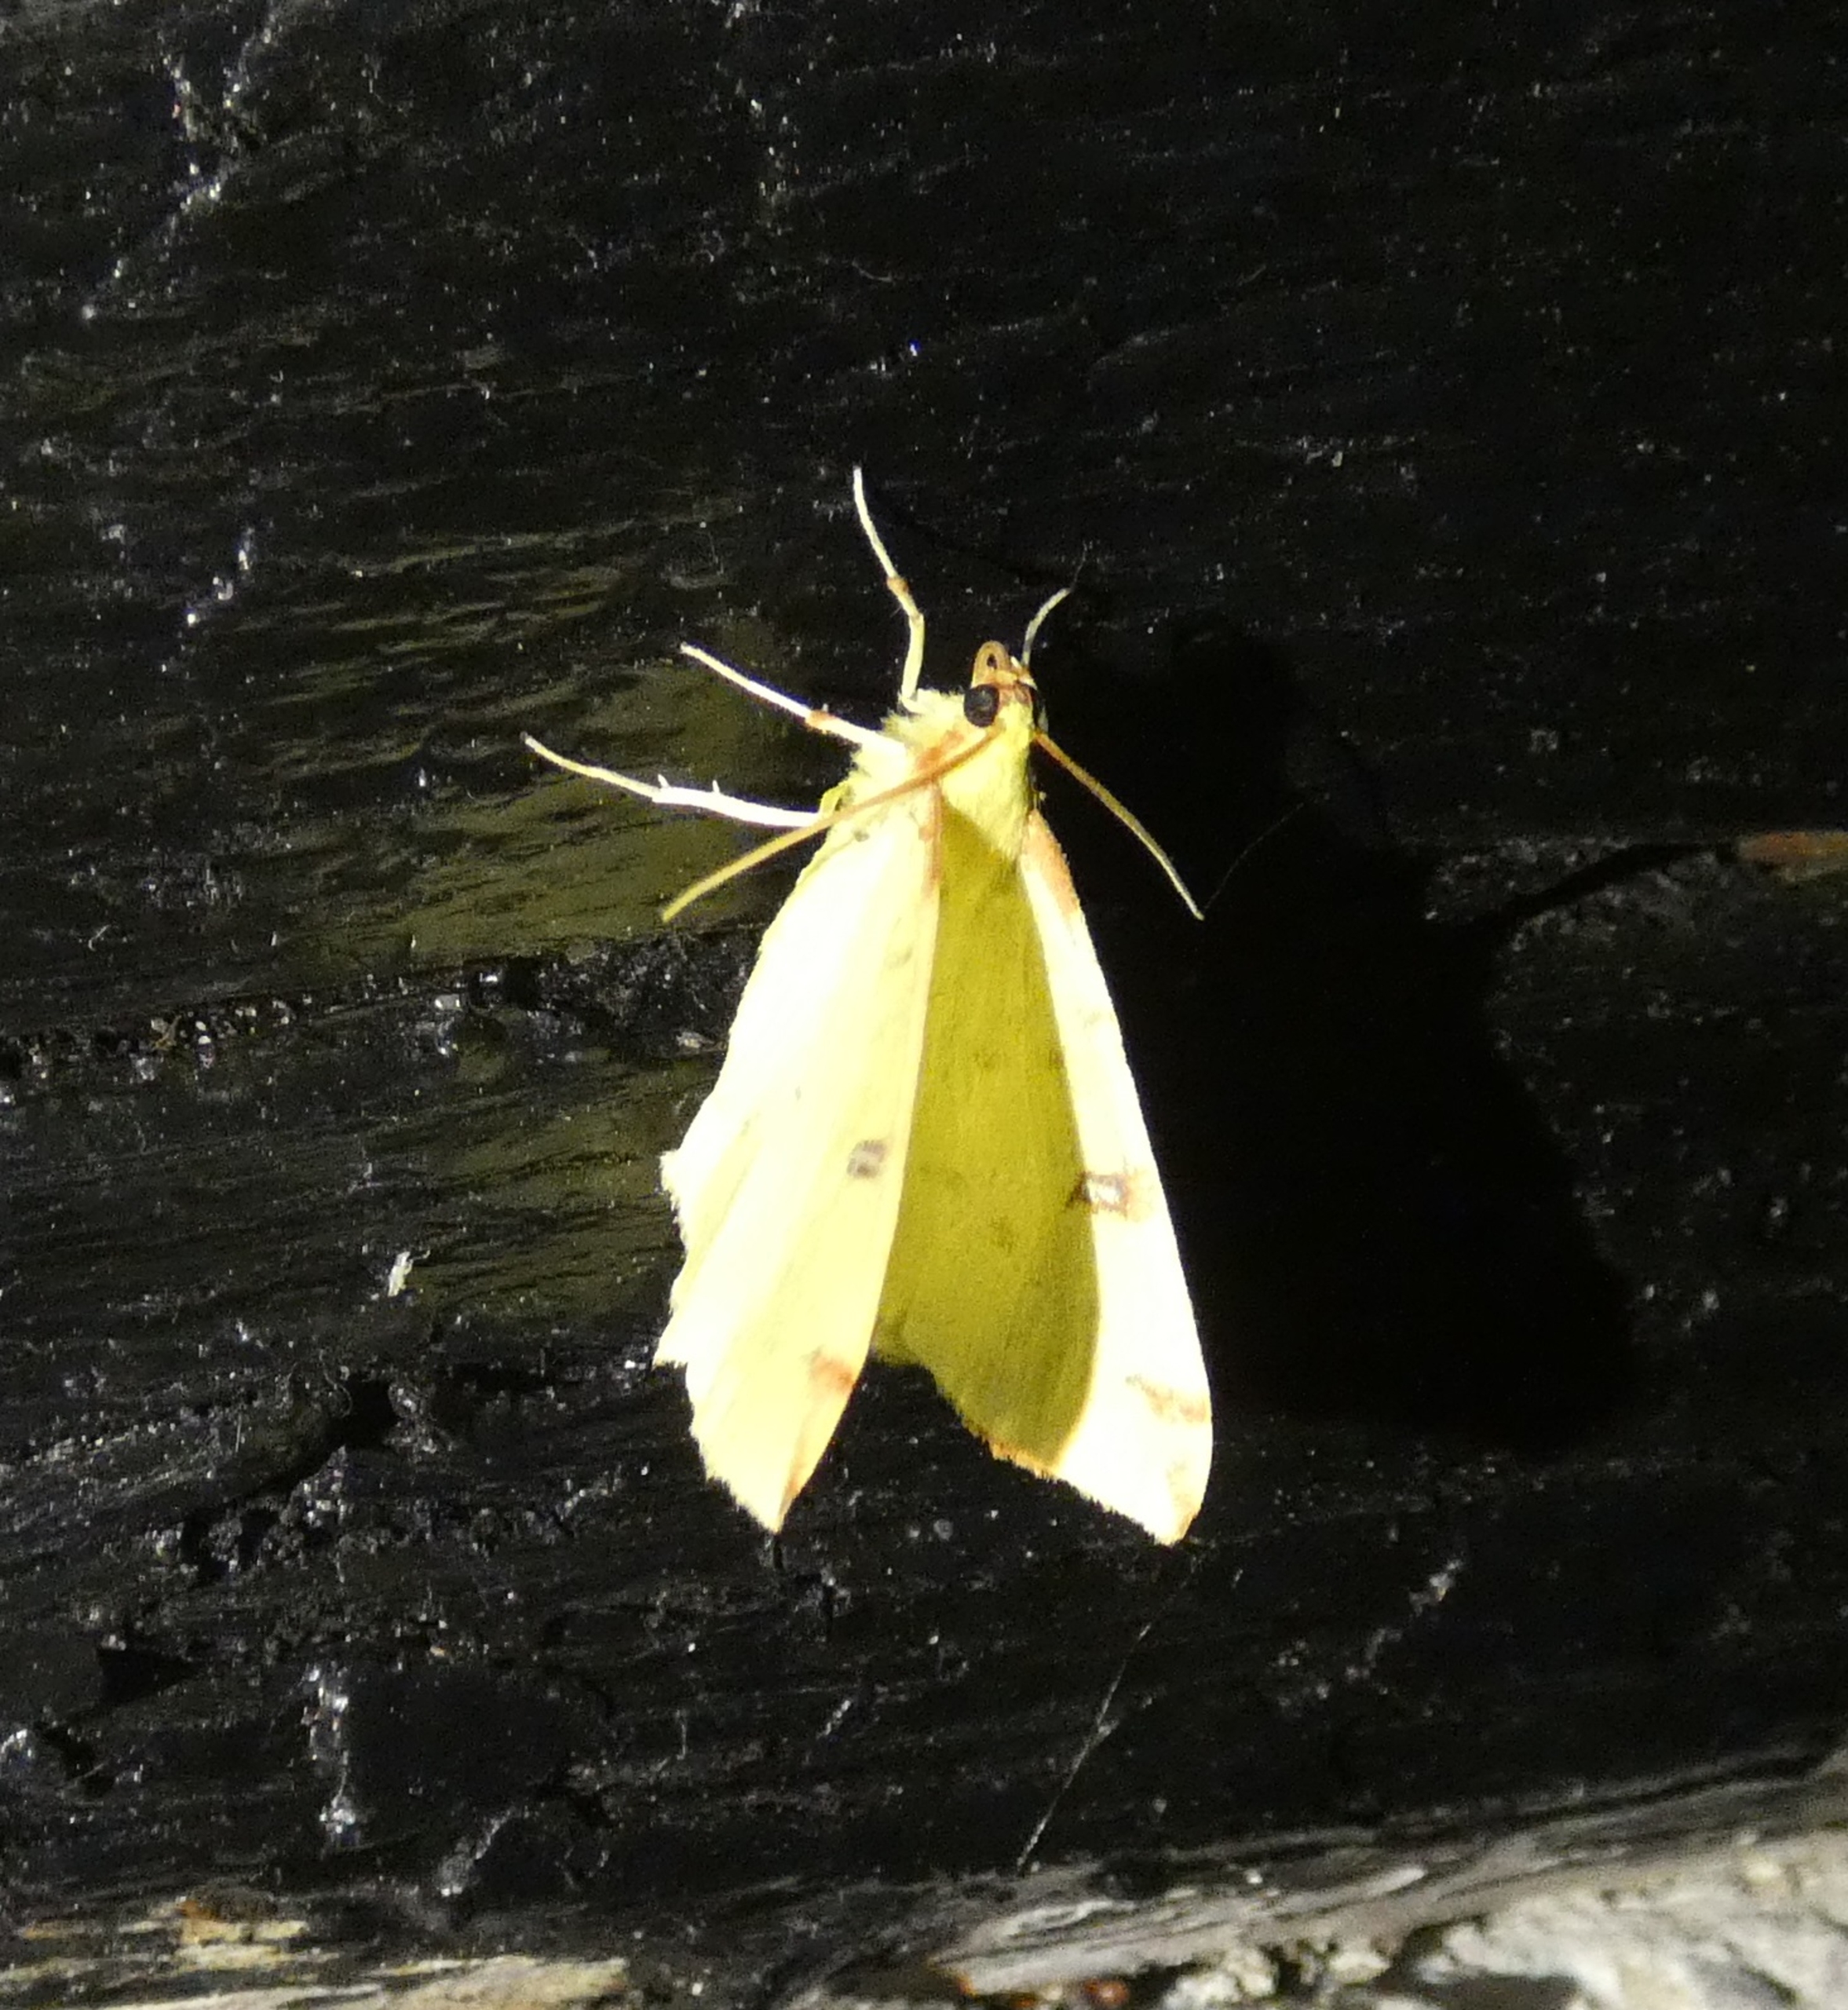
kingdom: Animalia
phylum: Arthropoda
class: Insecta
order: Lepidoptera
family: Geometridae
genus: Opisthograptis
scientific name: Opisthograptis luteolata
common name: Citronmåler
